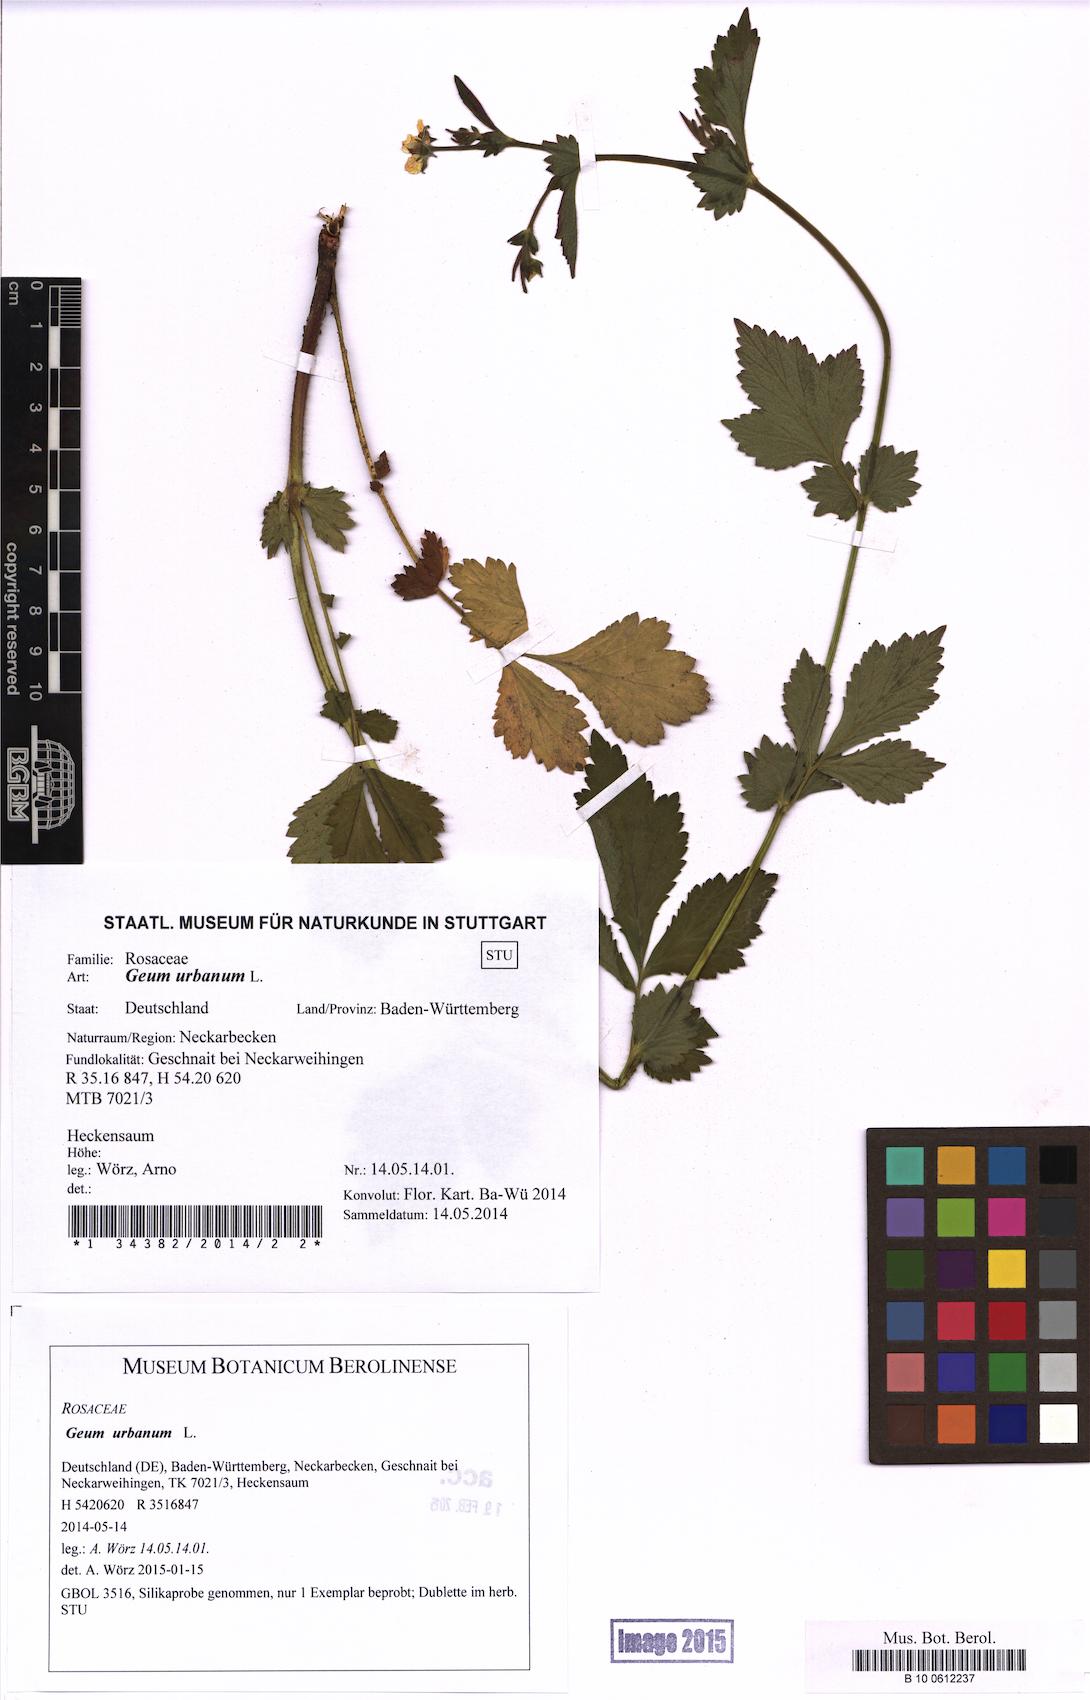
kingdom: Plantae
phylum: Tracheophyta
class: Magnoliopsida
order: Rosales
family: Rosaceae
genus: Geum
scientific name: Geum urbanum
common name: Wood avens
